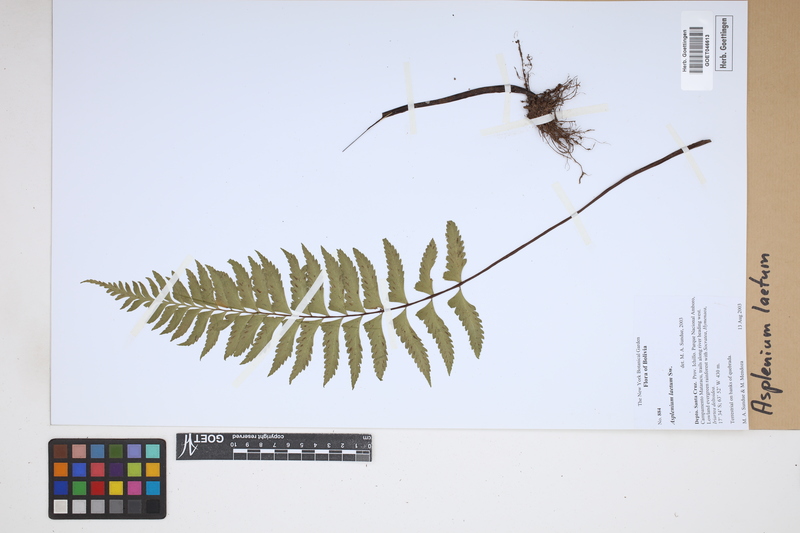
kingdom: Plantae
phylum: Tracheophyta
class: Polypodiopsida
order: Polypodiales
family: Aspleniaceae
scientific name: Aspleniaceae
